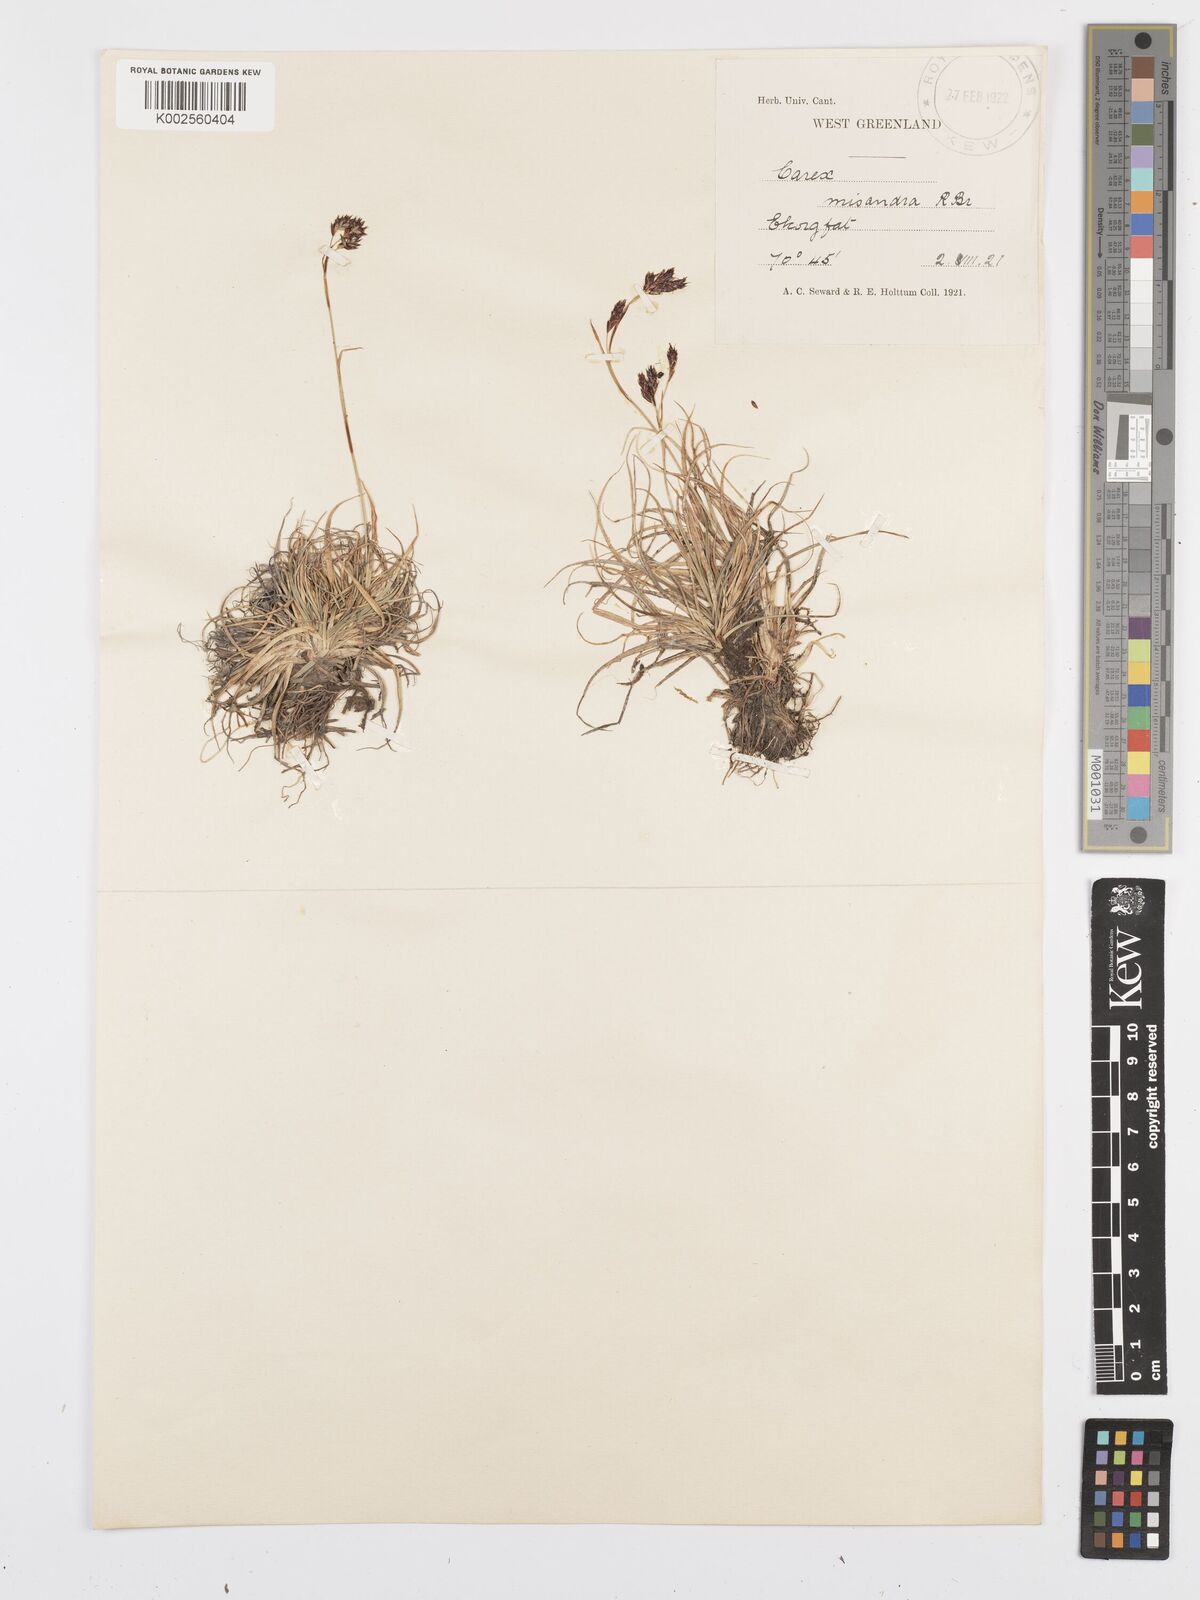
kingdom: Plantae
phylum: Tracheophyta
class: Liliopsida
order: Poales
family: Cyperaceae
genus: Carex
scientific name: Carex fuliginosa
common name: Few-flowered sedge
